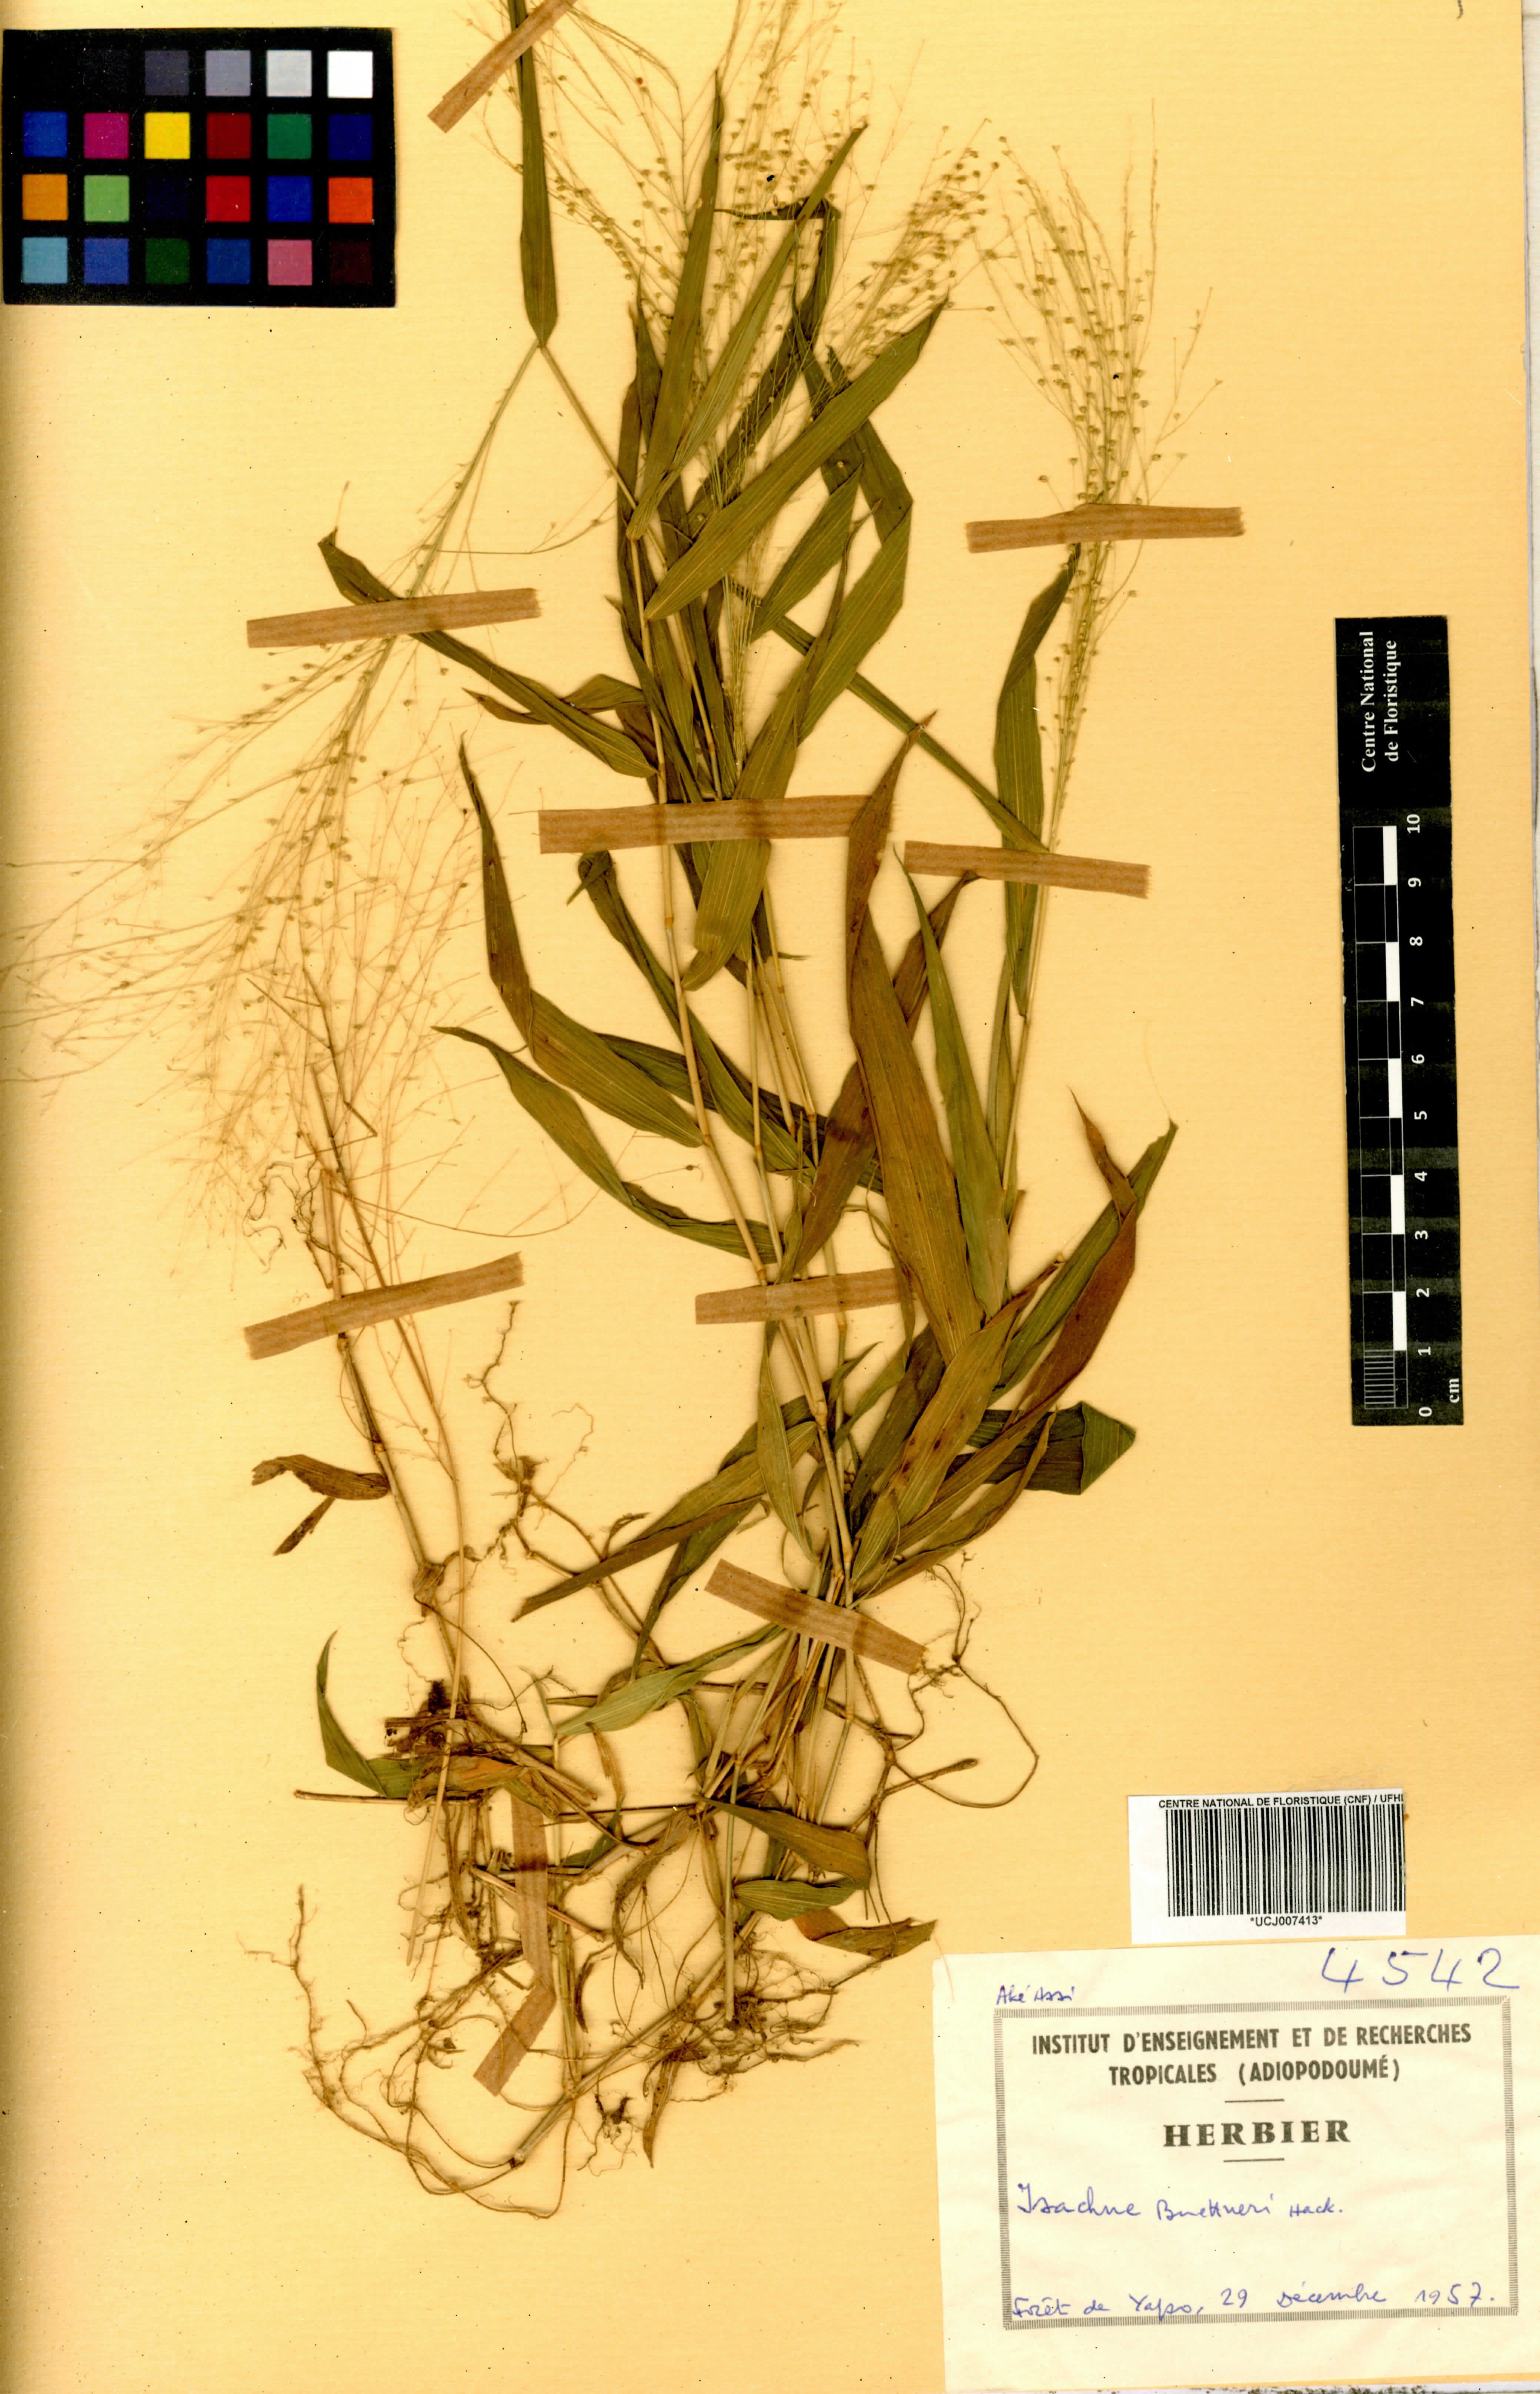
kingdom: Plantae
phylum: Tracheophyta
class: Liliopsida
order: Poales
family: Poaceae
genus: Isachne
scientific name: Isachne albens
